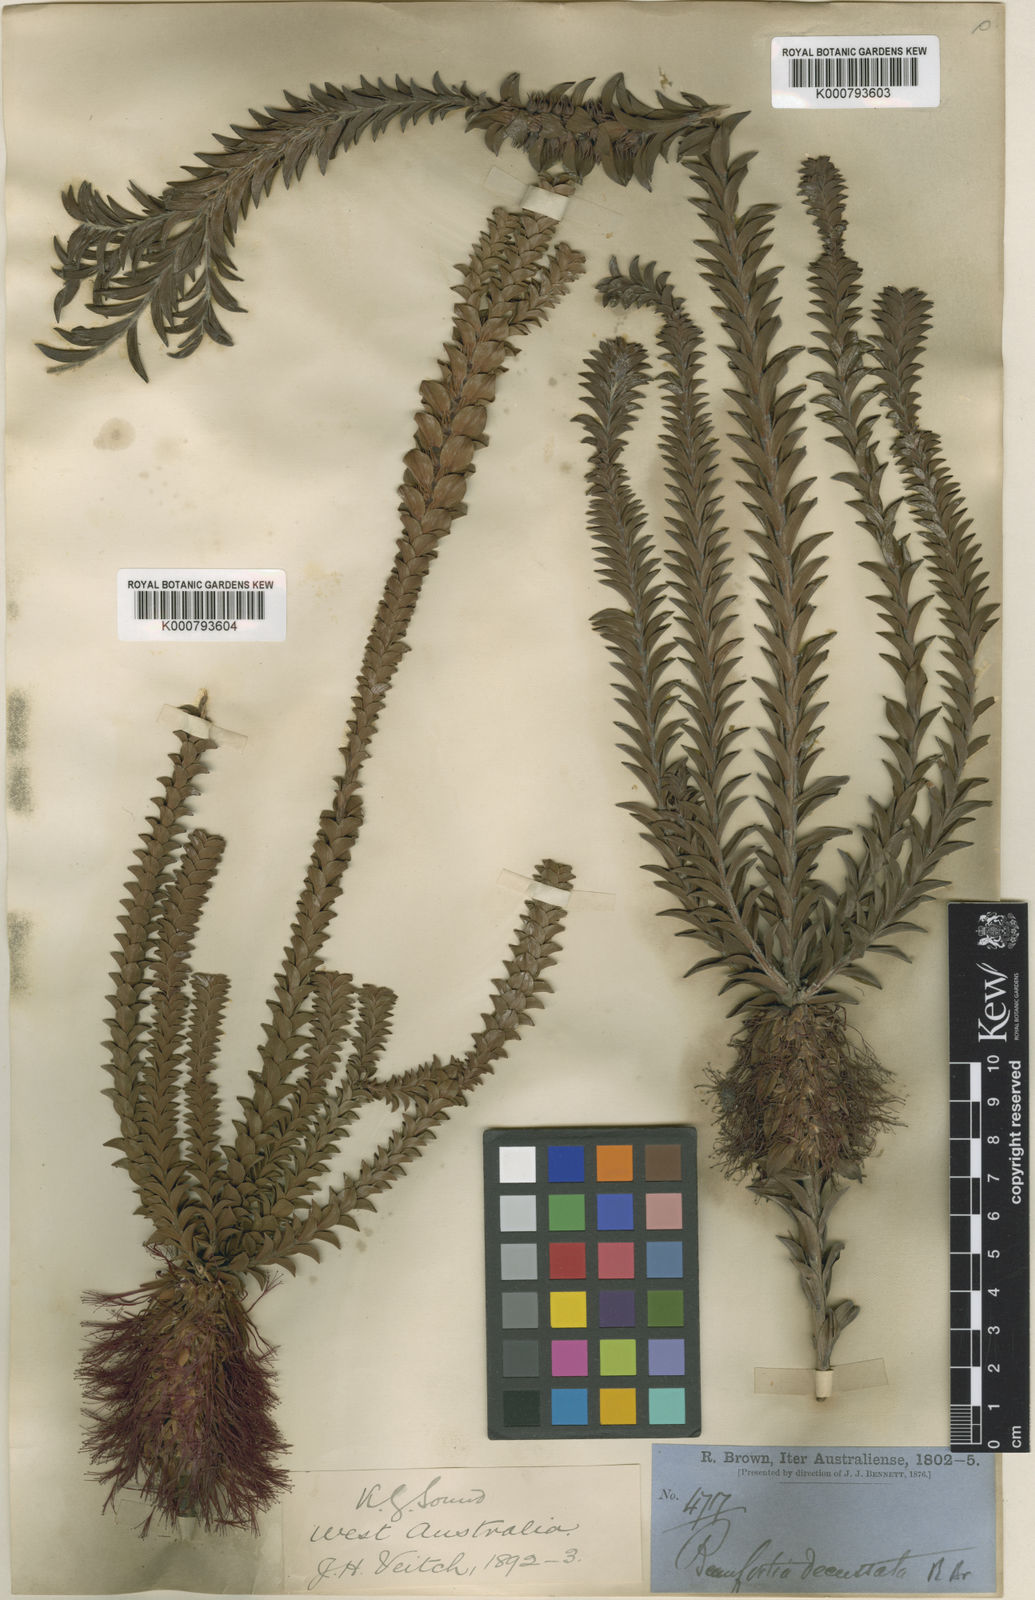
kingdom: Plantae
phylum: Tracheophyta
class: Magnoliopsida
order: Myrtales
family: Myrtaceae
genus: Melaleuca
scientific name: Melaleuca transversa
